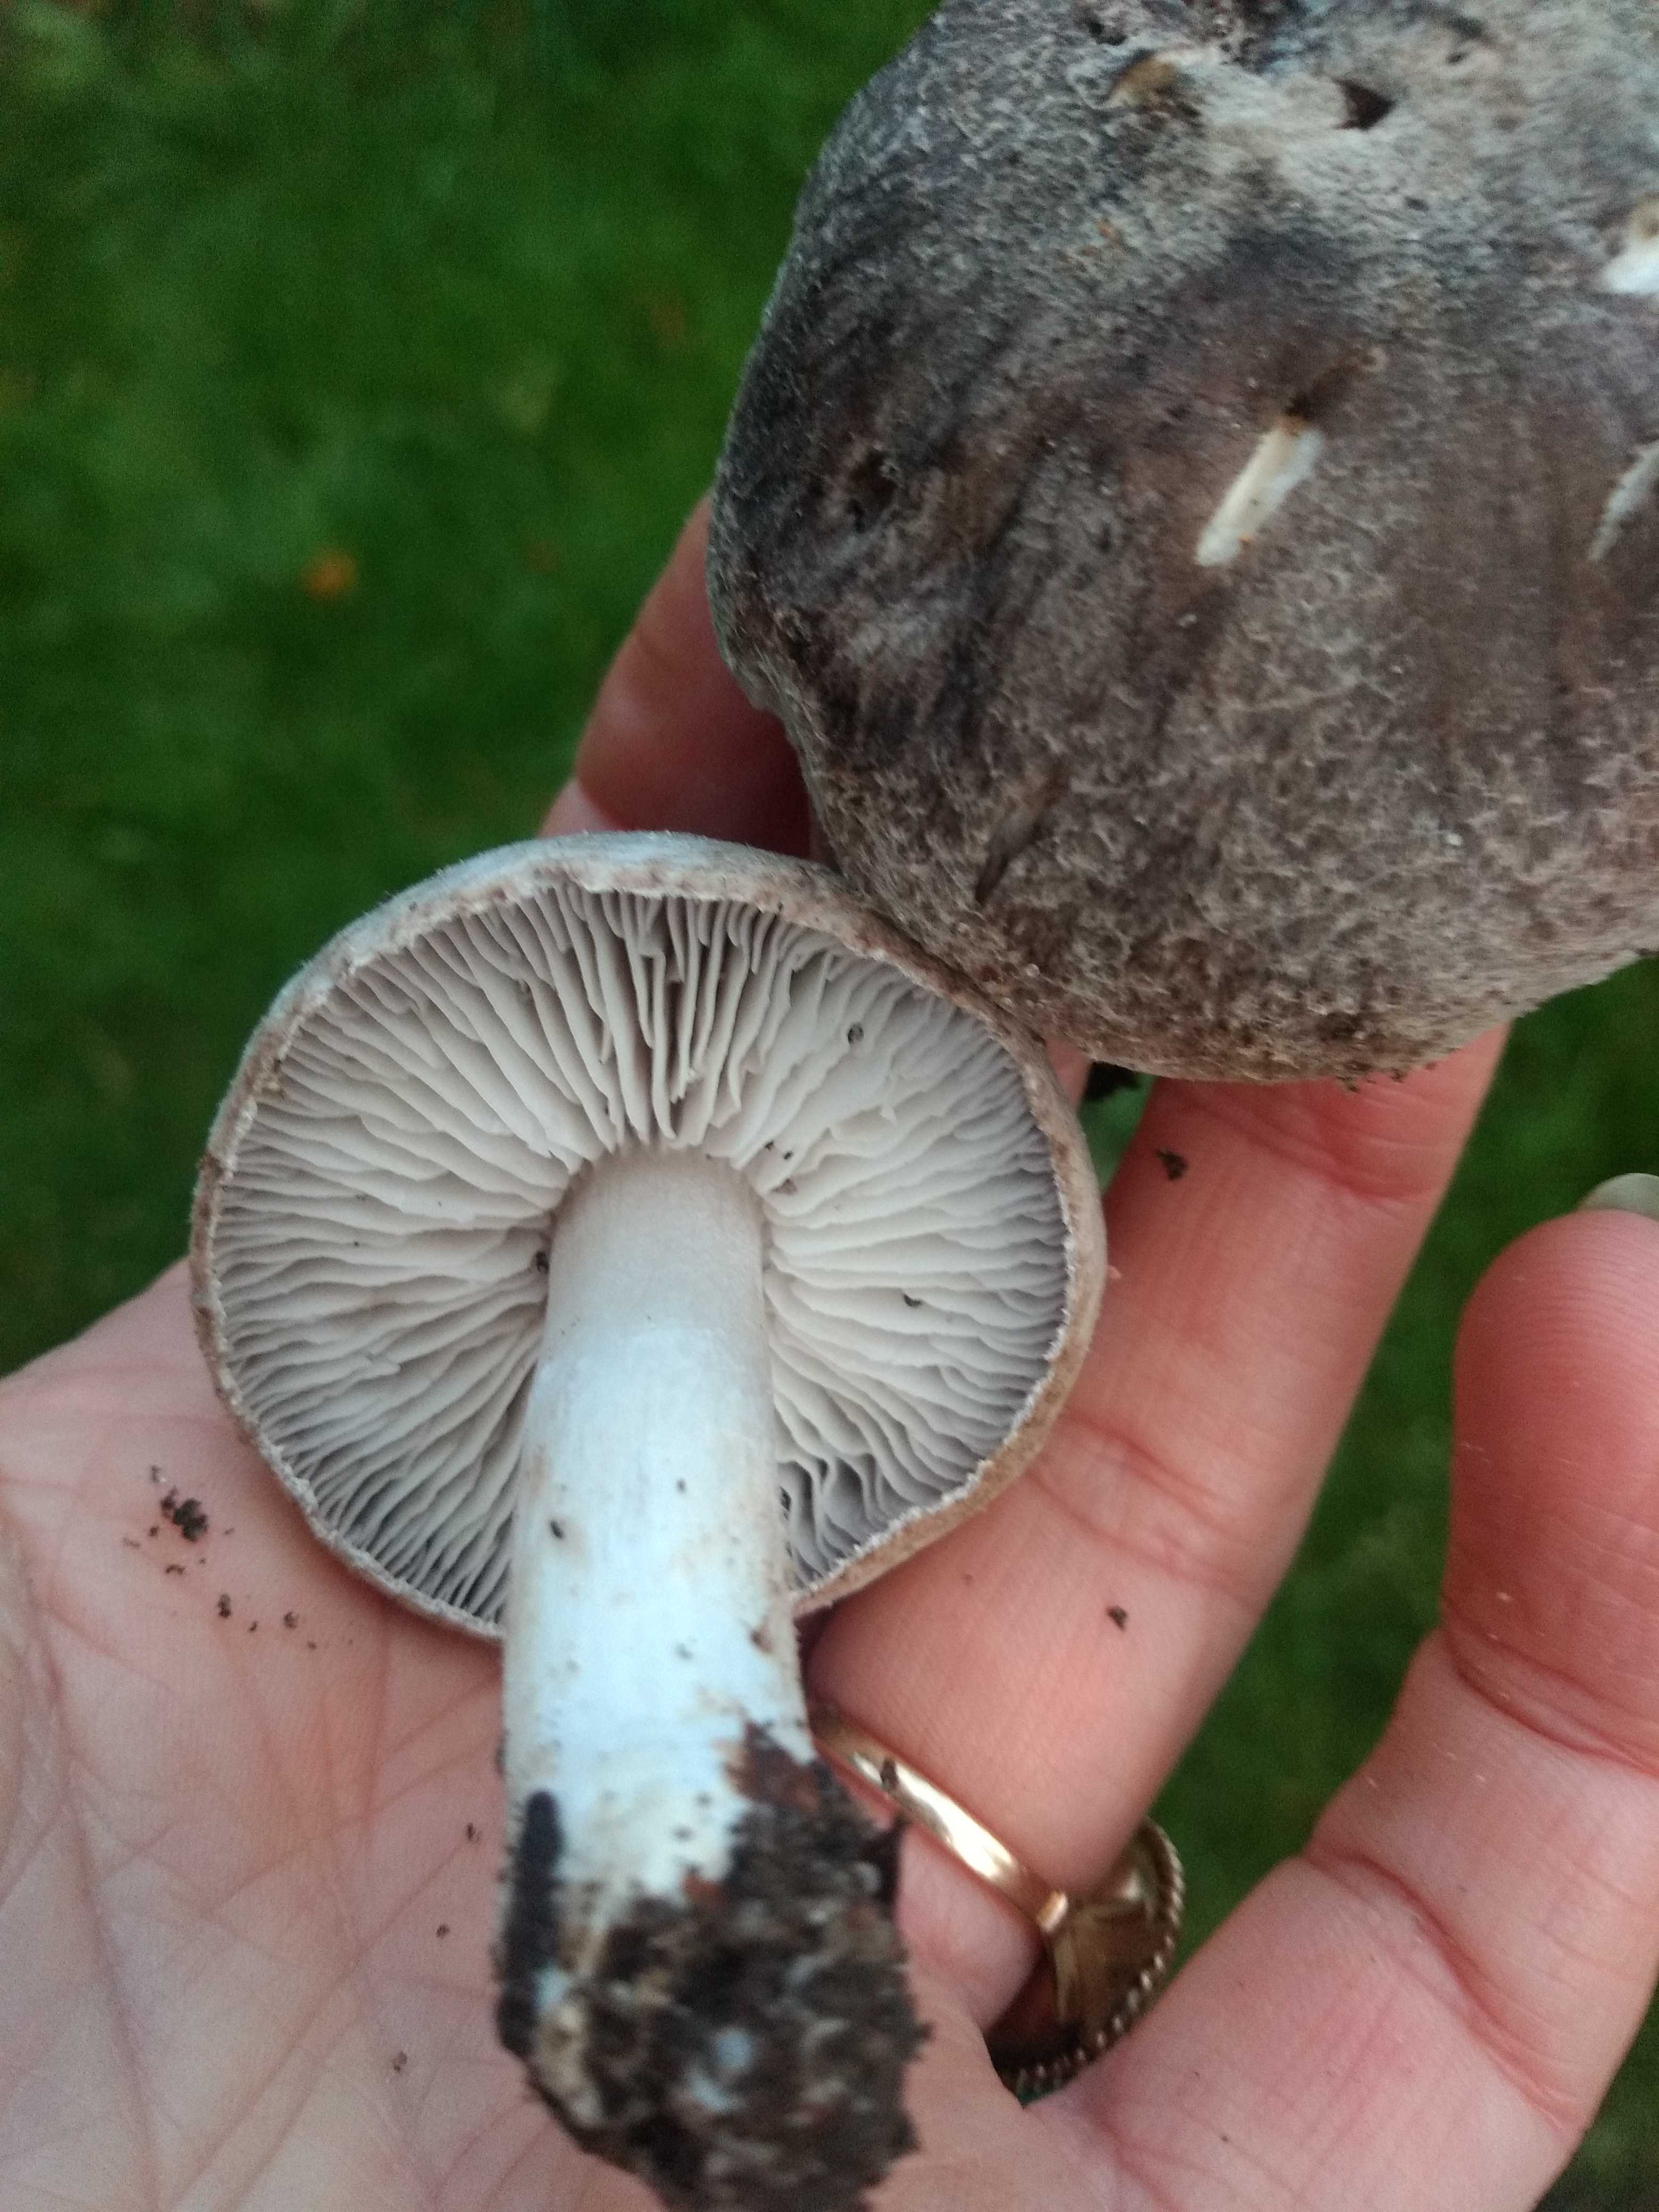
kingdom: Fungi
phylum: Basidiomycota
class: Agaricomycetes
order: Agaricales
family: Tricholomataceae
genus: Tricholoma
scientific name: Tricholoma terreum
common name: jordfarvet ridderhat
